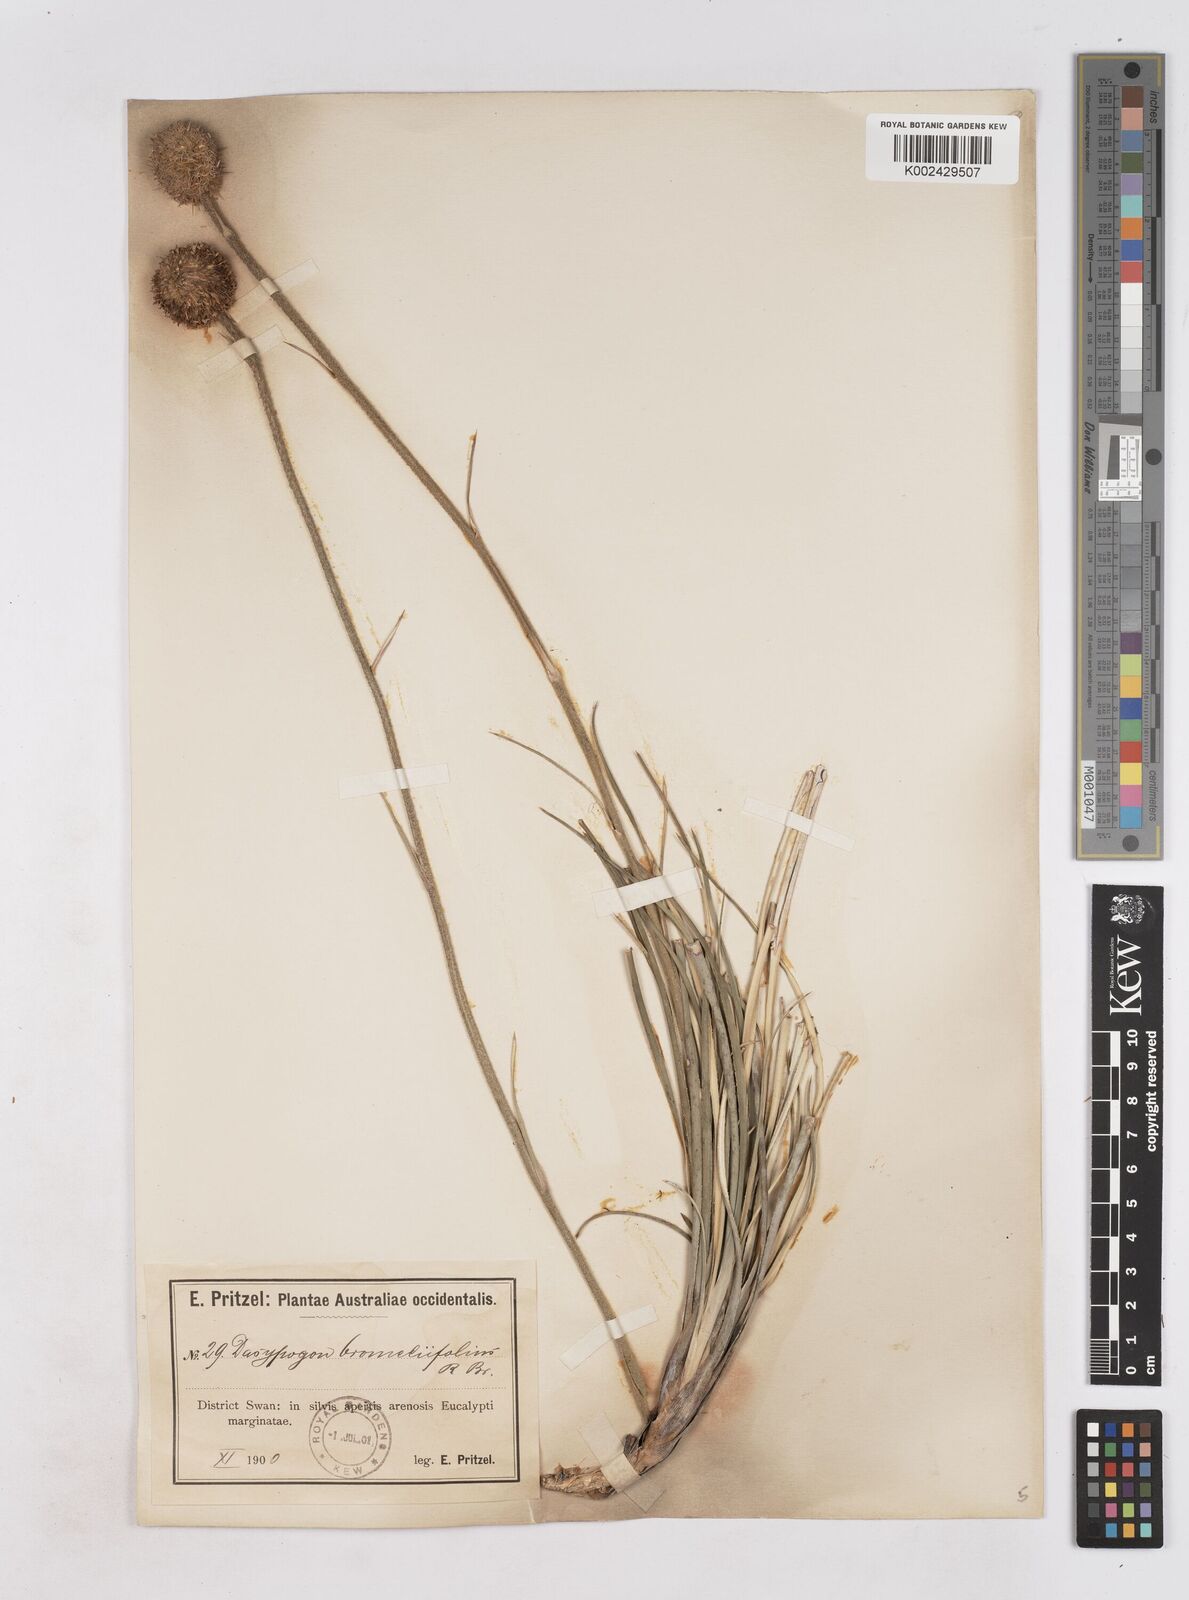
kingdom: Plantae
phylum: Tracheophyta
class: Liliopsida
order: Arecales
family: Dasypogonaceae
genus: Dasypogon
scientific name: Dasypogon bromeliifolius
